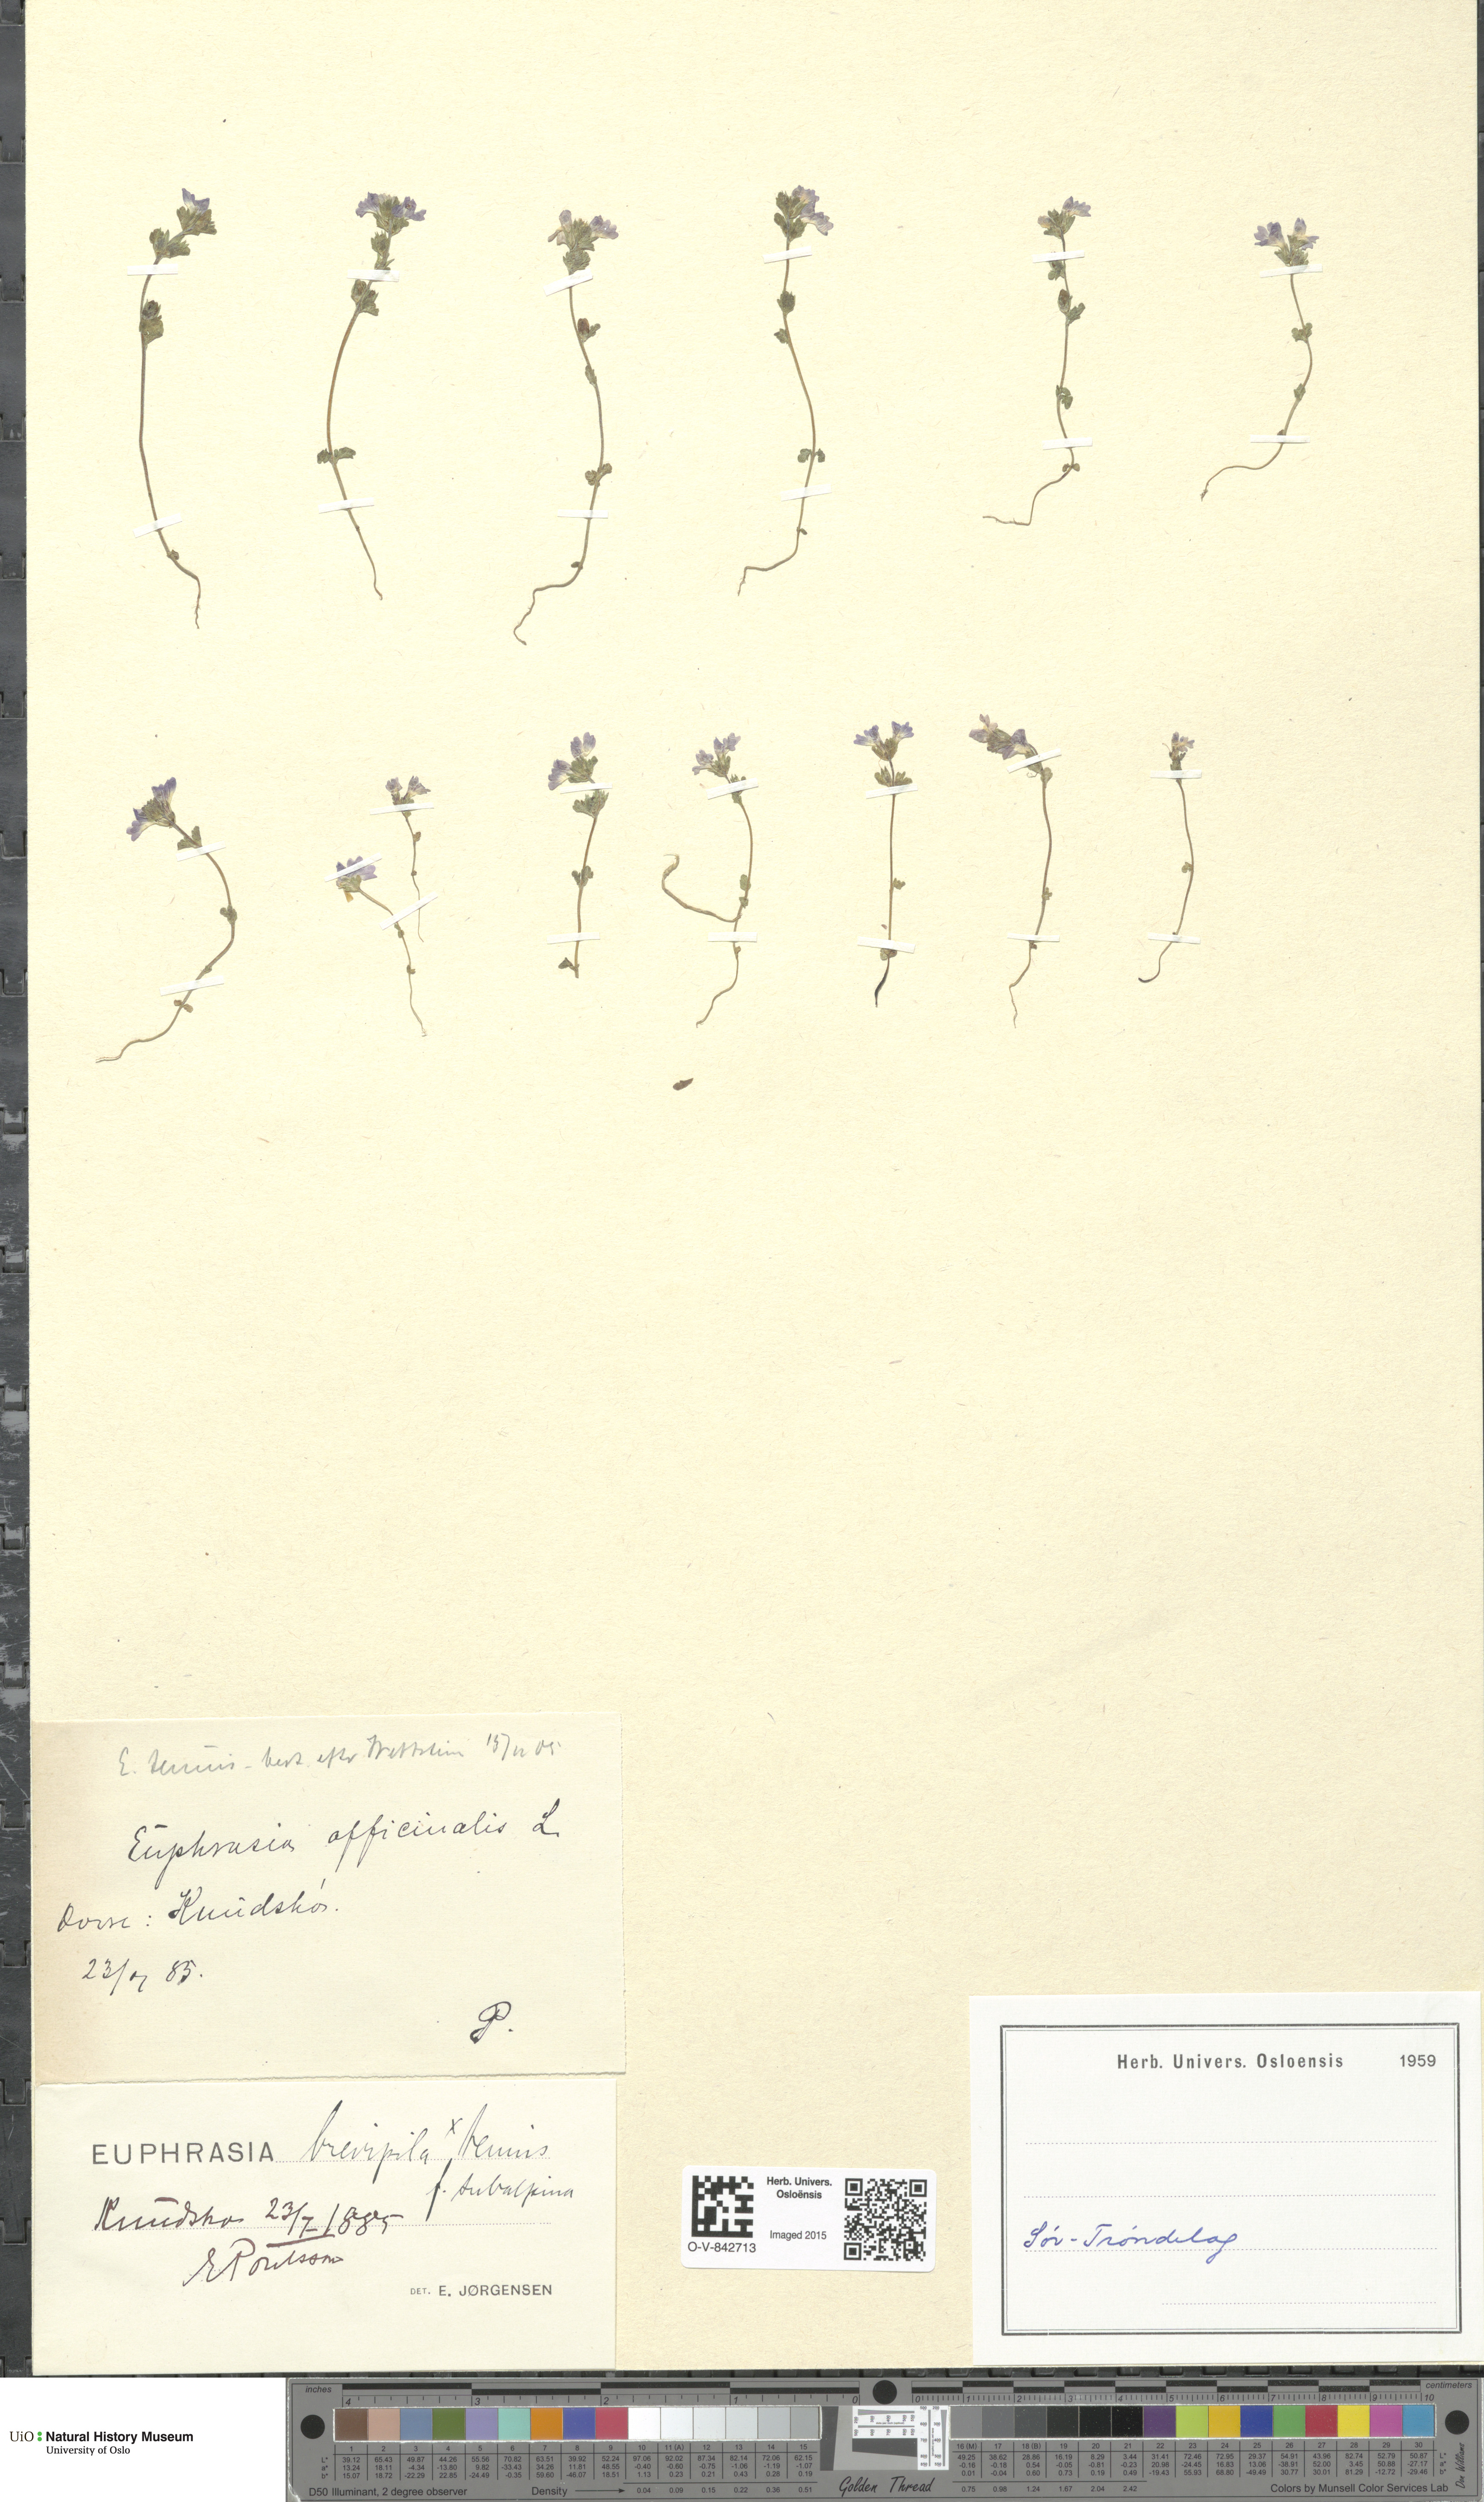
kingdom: Plantae
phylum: Tracheophyta
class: Magnoliopsida
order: Lamiales
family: Orobanchaceae
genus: Euphrasia
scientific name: Euphrasia vernalis
